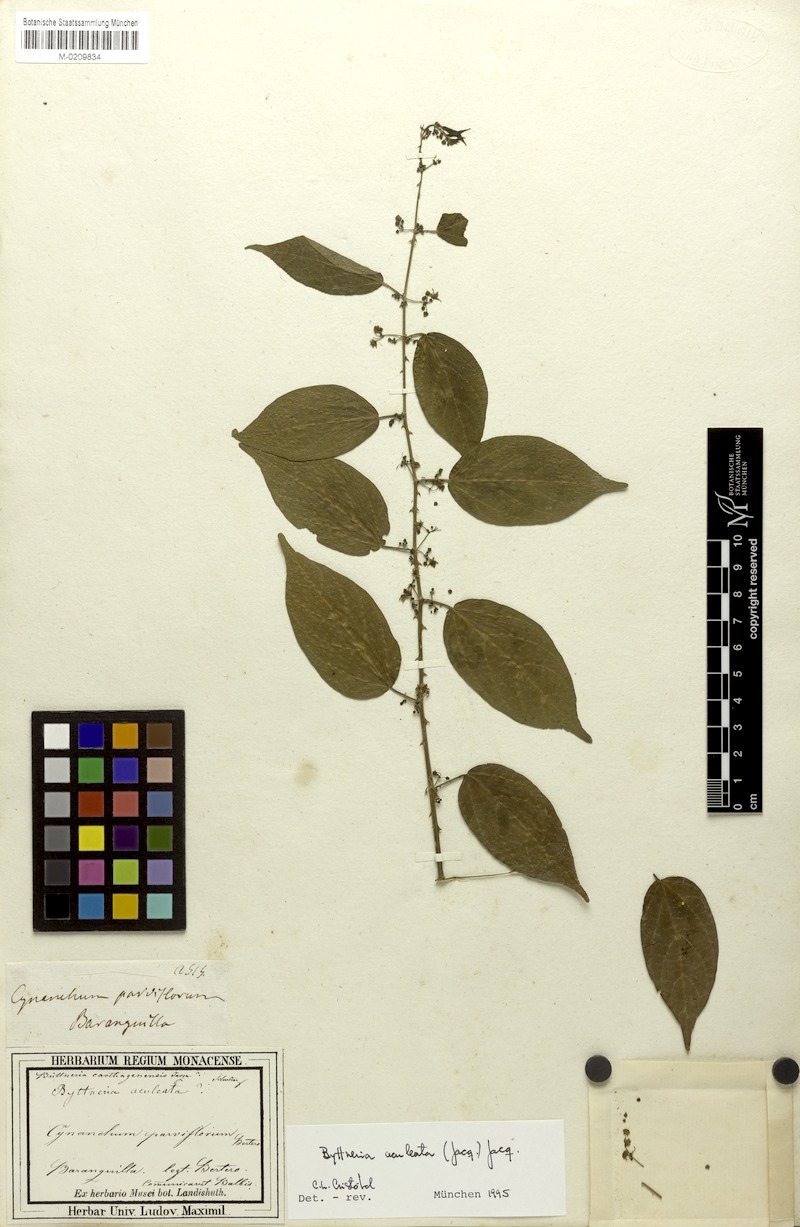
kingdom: Plantae
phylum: Tracheophyta
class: Magnoliopsida
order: Malvales
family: Malvaceae
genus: Byttneria
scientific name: Byttneria aculeata
